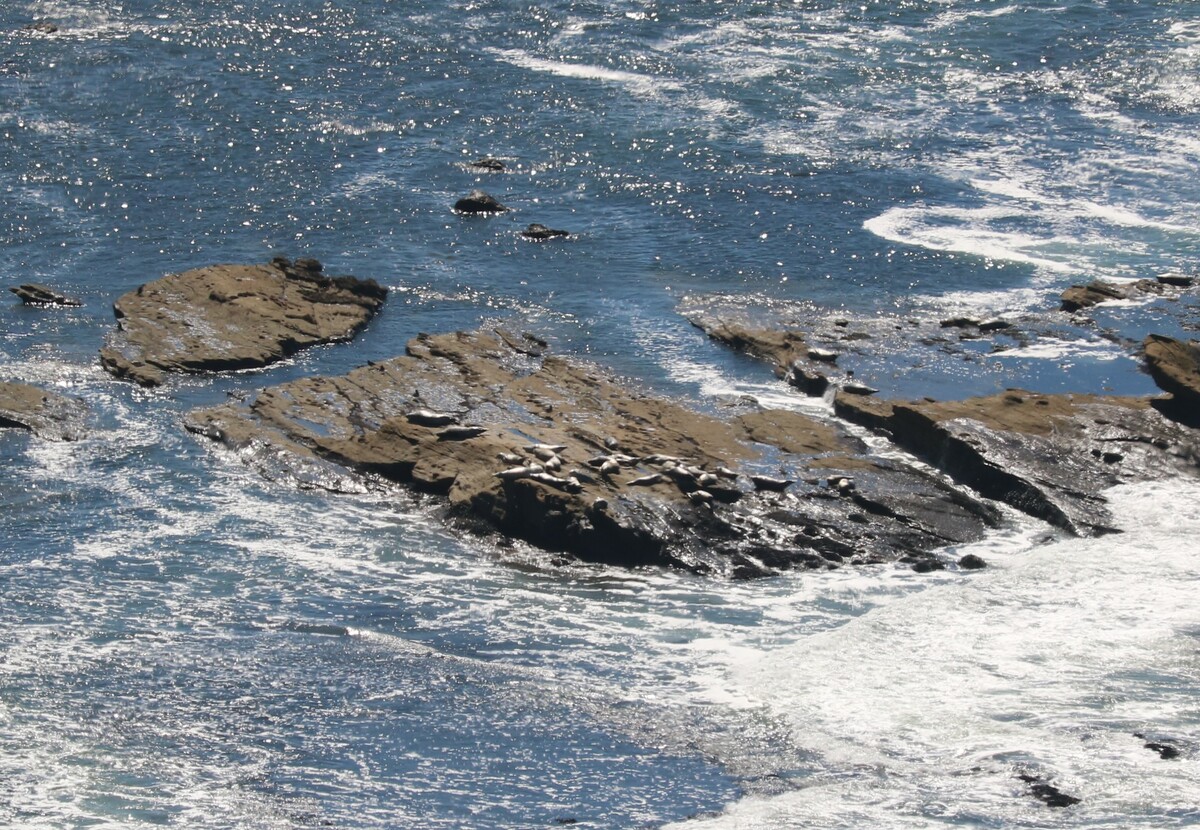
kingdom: Animalia
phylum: Chordata
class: Mammalia
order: Carnivora
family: Phocidae
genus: Phoca
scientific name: Phoca vitulina
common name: Harbor seal
